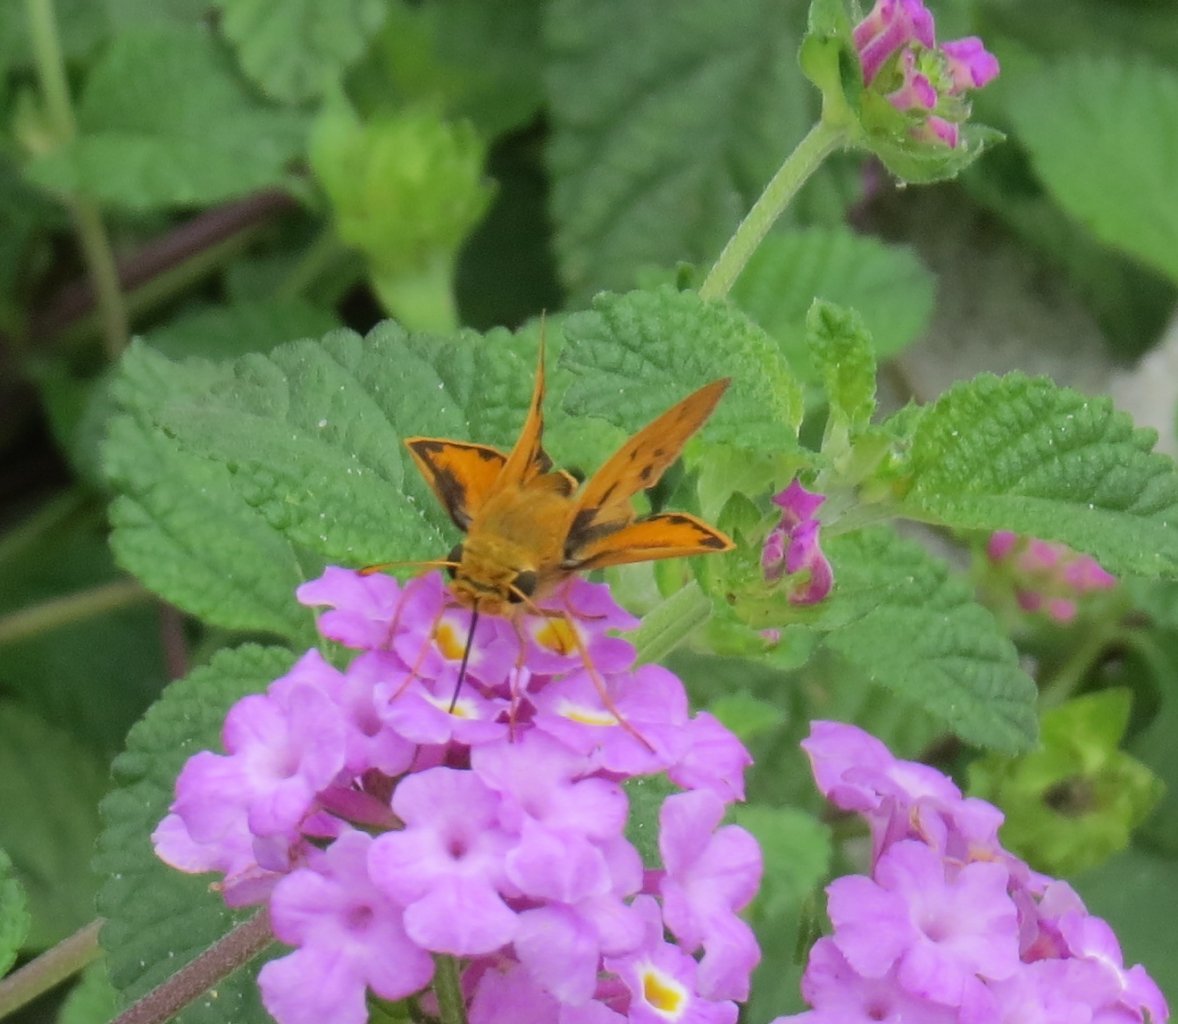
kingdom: Animalia
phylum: Arthropoda
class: Insecta
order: Lepidoptera
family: Hesperiidae
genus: Hylephila
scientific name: Hylephila phyleus
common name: Fiery Skipper
